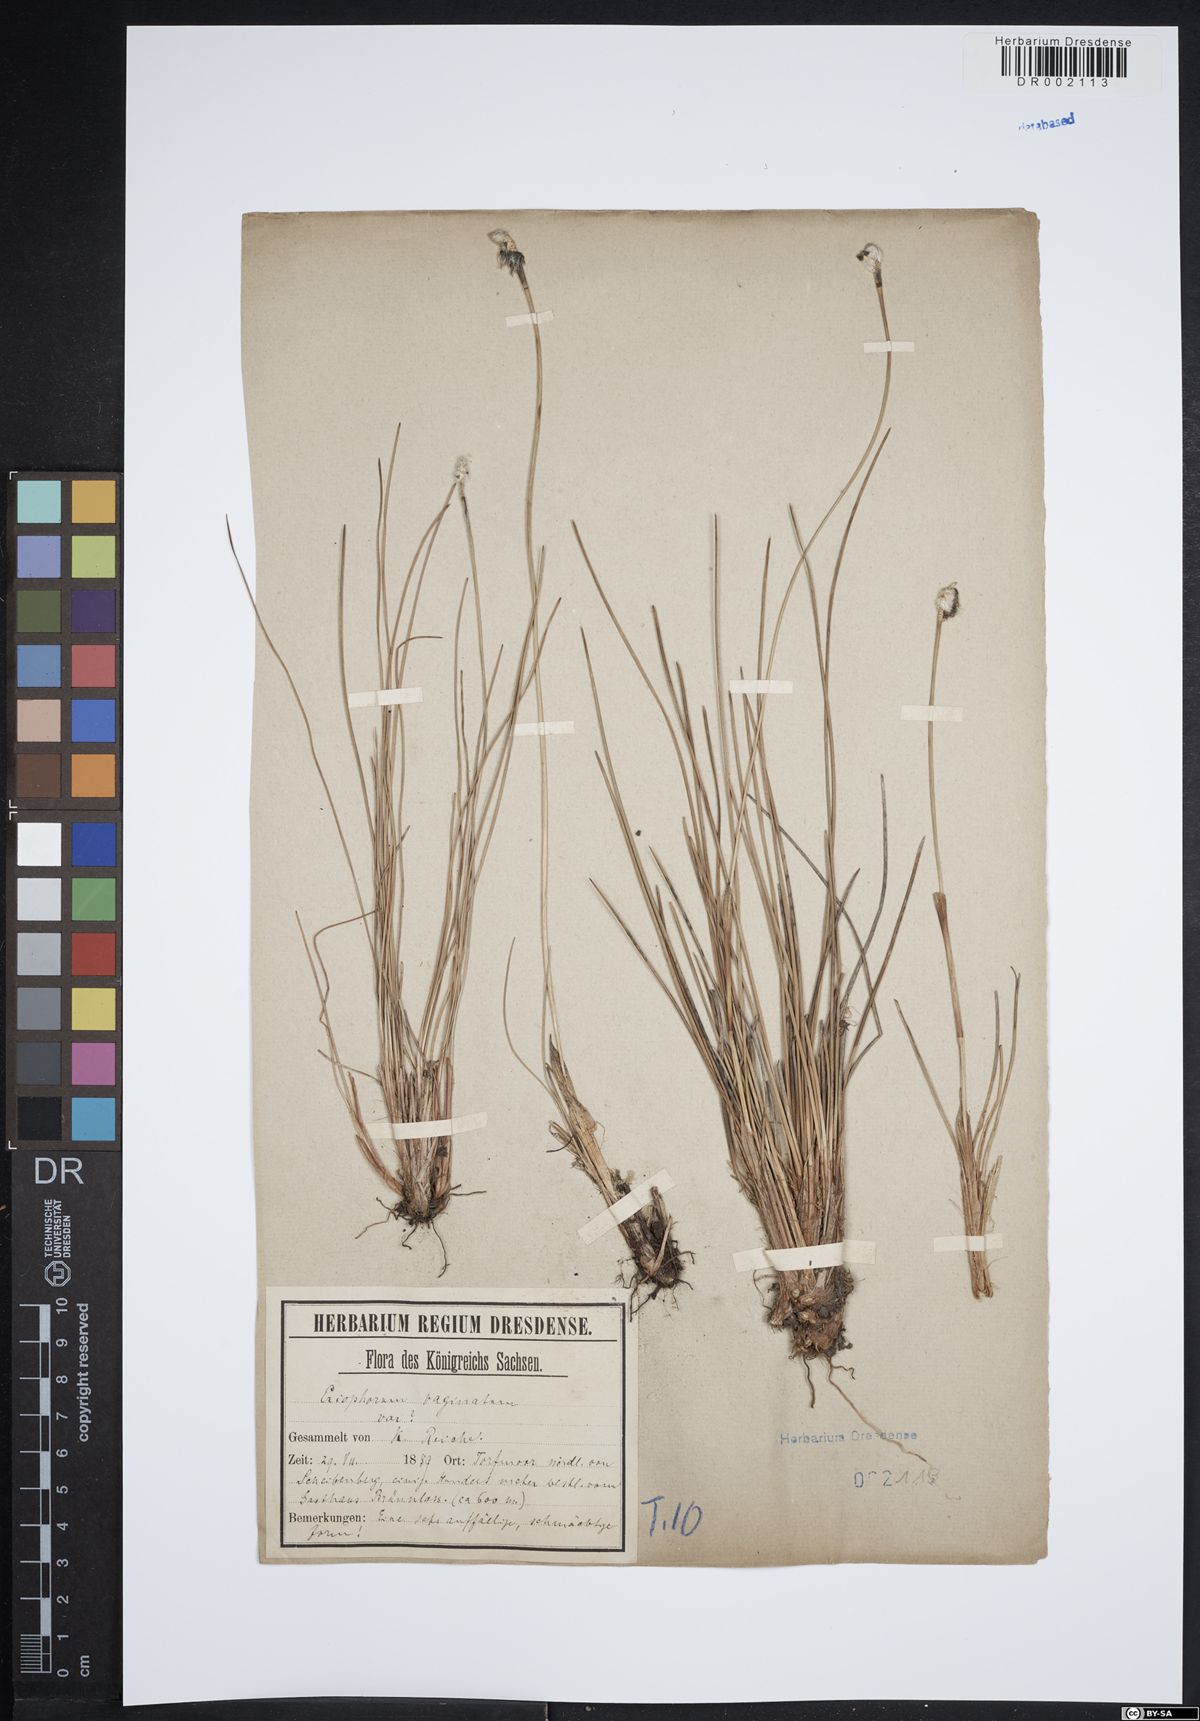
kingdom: Plantae
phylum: Tracheophyta
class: Liliopsida
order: Poales
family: Cyperaceae
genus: Eriophorum
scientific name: Eriophorum vaginatum
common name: Hare's-tail cottongrass
